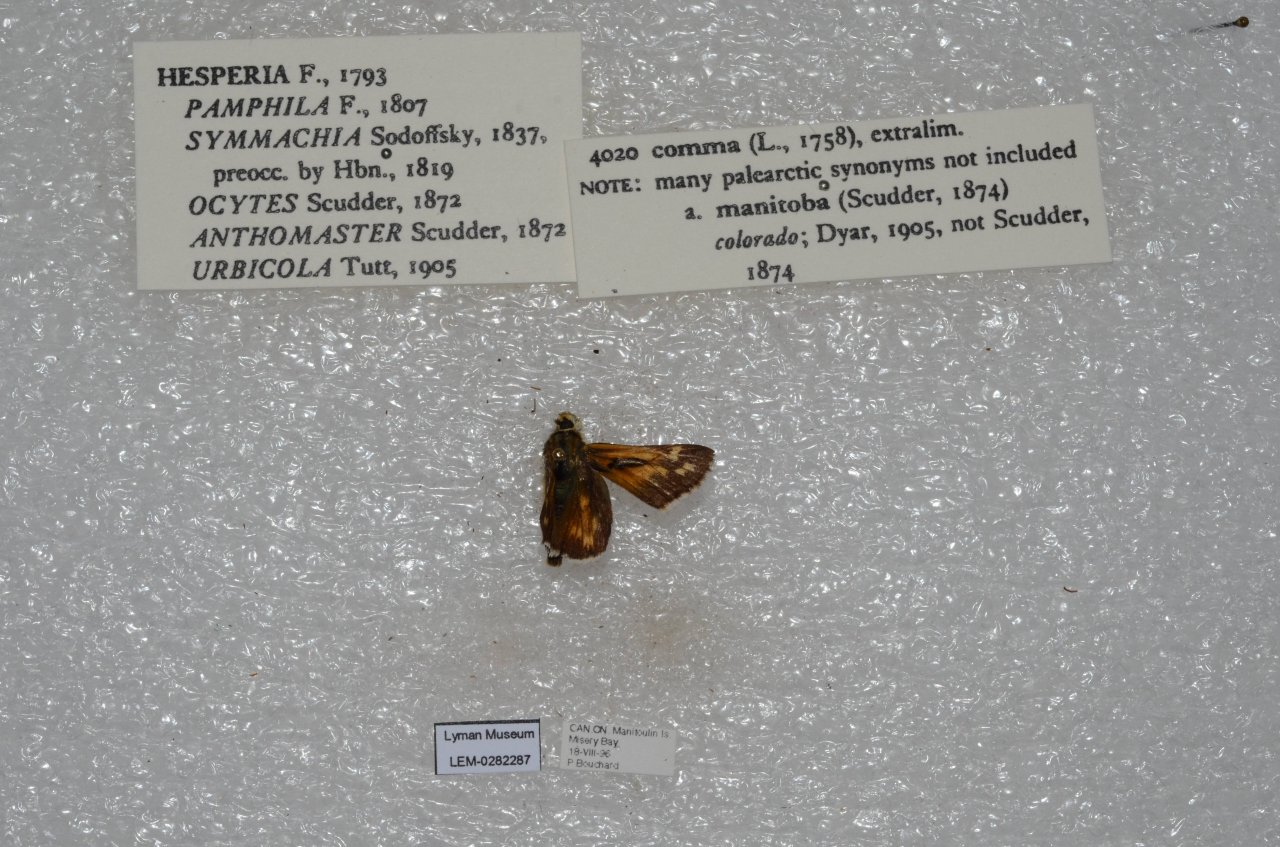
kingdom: Animalia
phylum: Arthropoda
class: Insecta
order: Lepidoptera
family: Hesperiidae
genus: Hesperia
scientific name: Hesperia comma
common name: Common Branded Skipper
